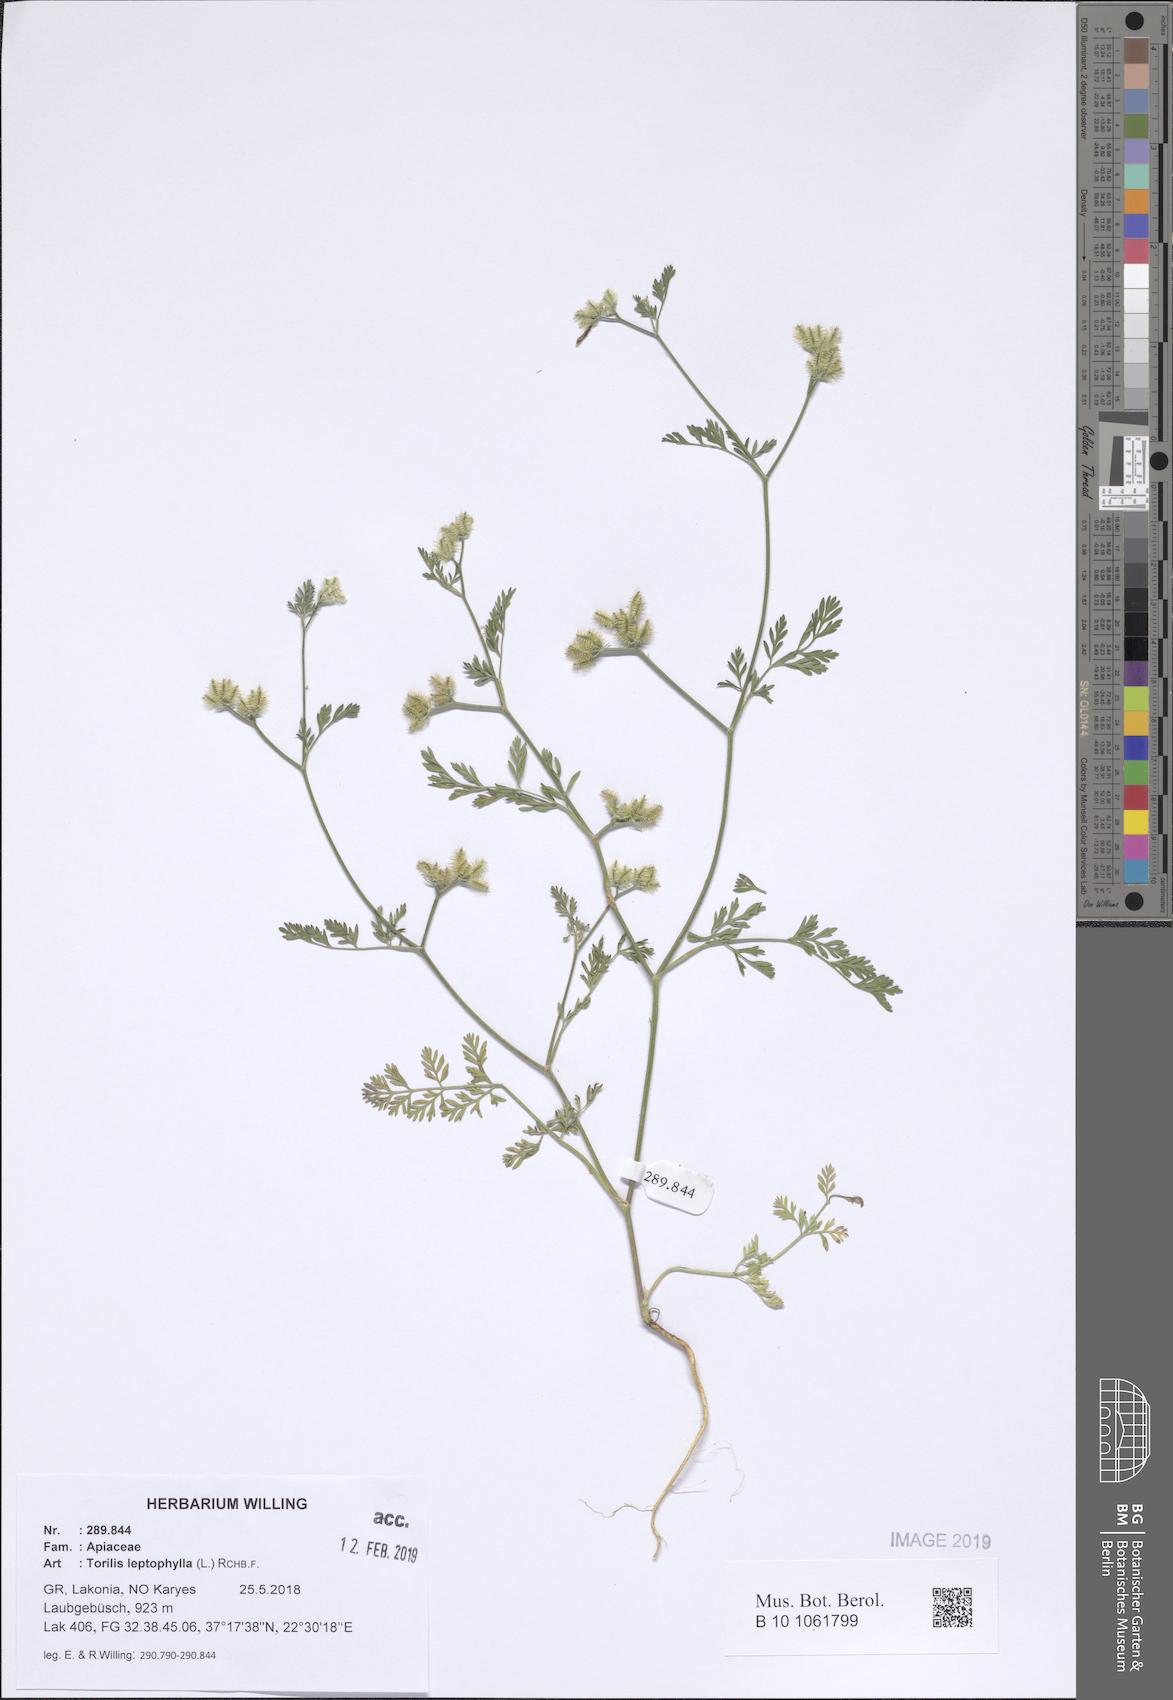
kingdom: Plantae
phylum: Tracheophyta
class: Magnoliopsida
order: Apiales
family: Apiaceae
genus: Torilis
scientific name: Torilis leptophylla
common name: Bristlefruit hedgeparsley
